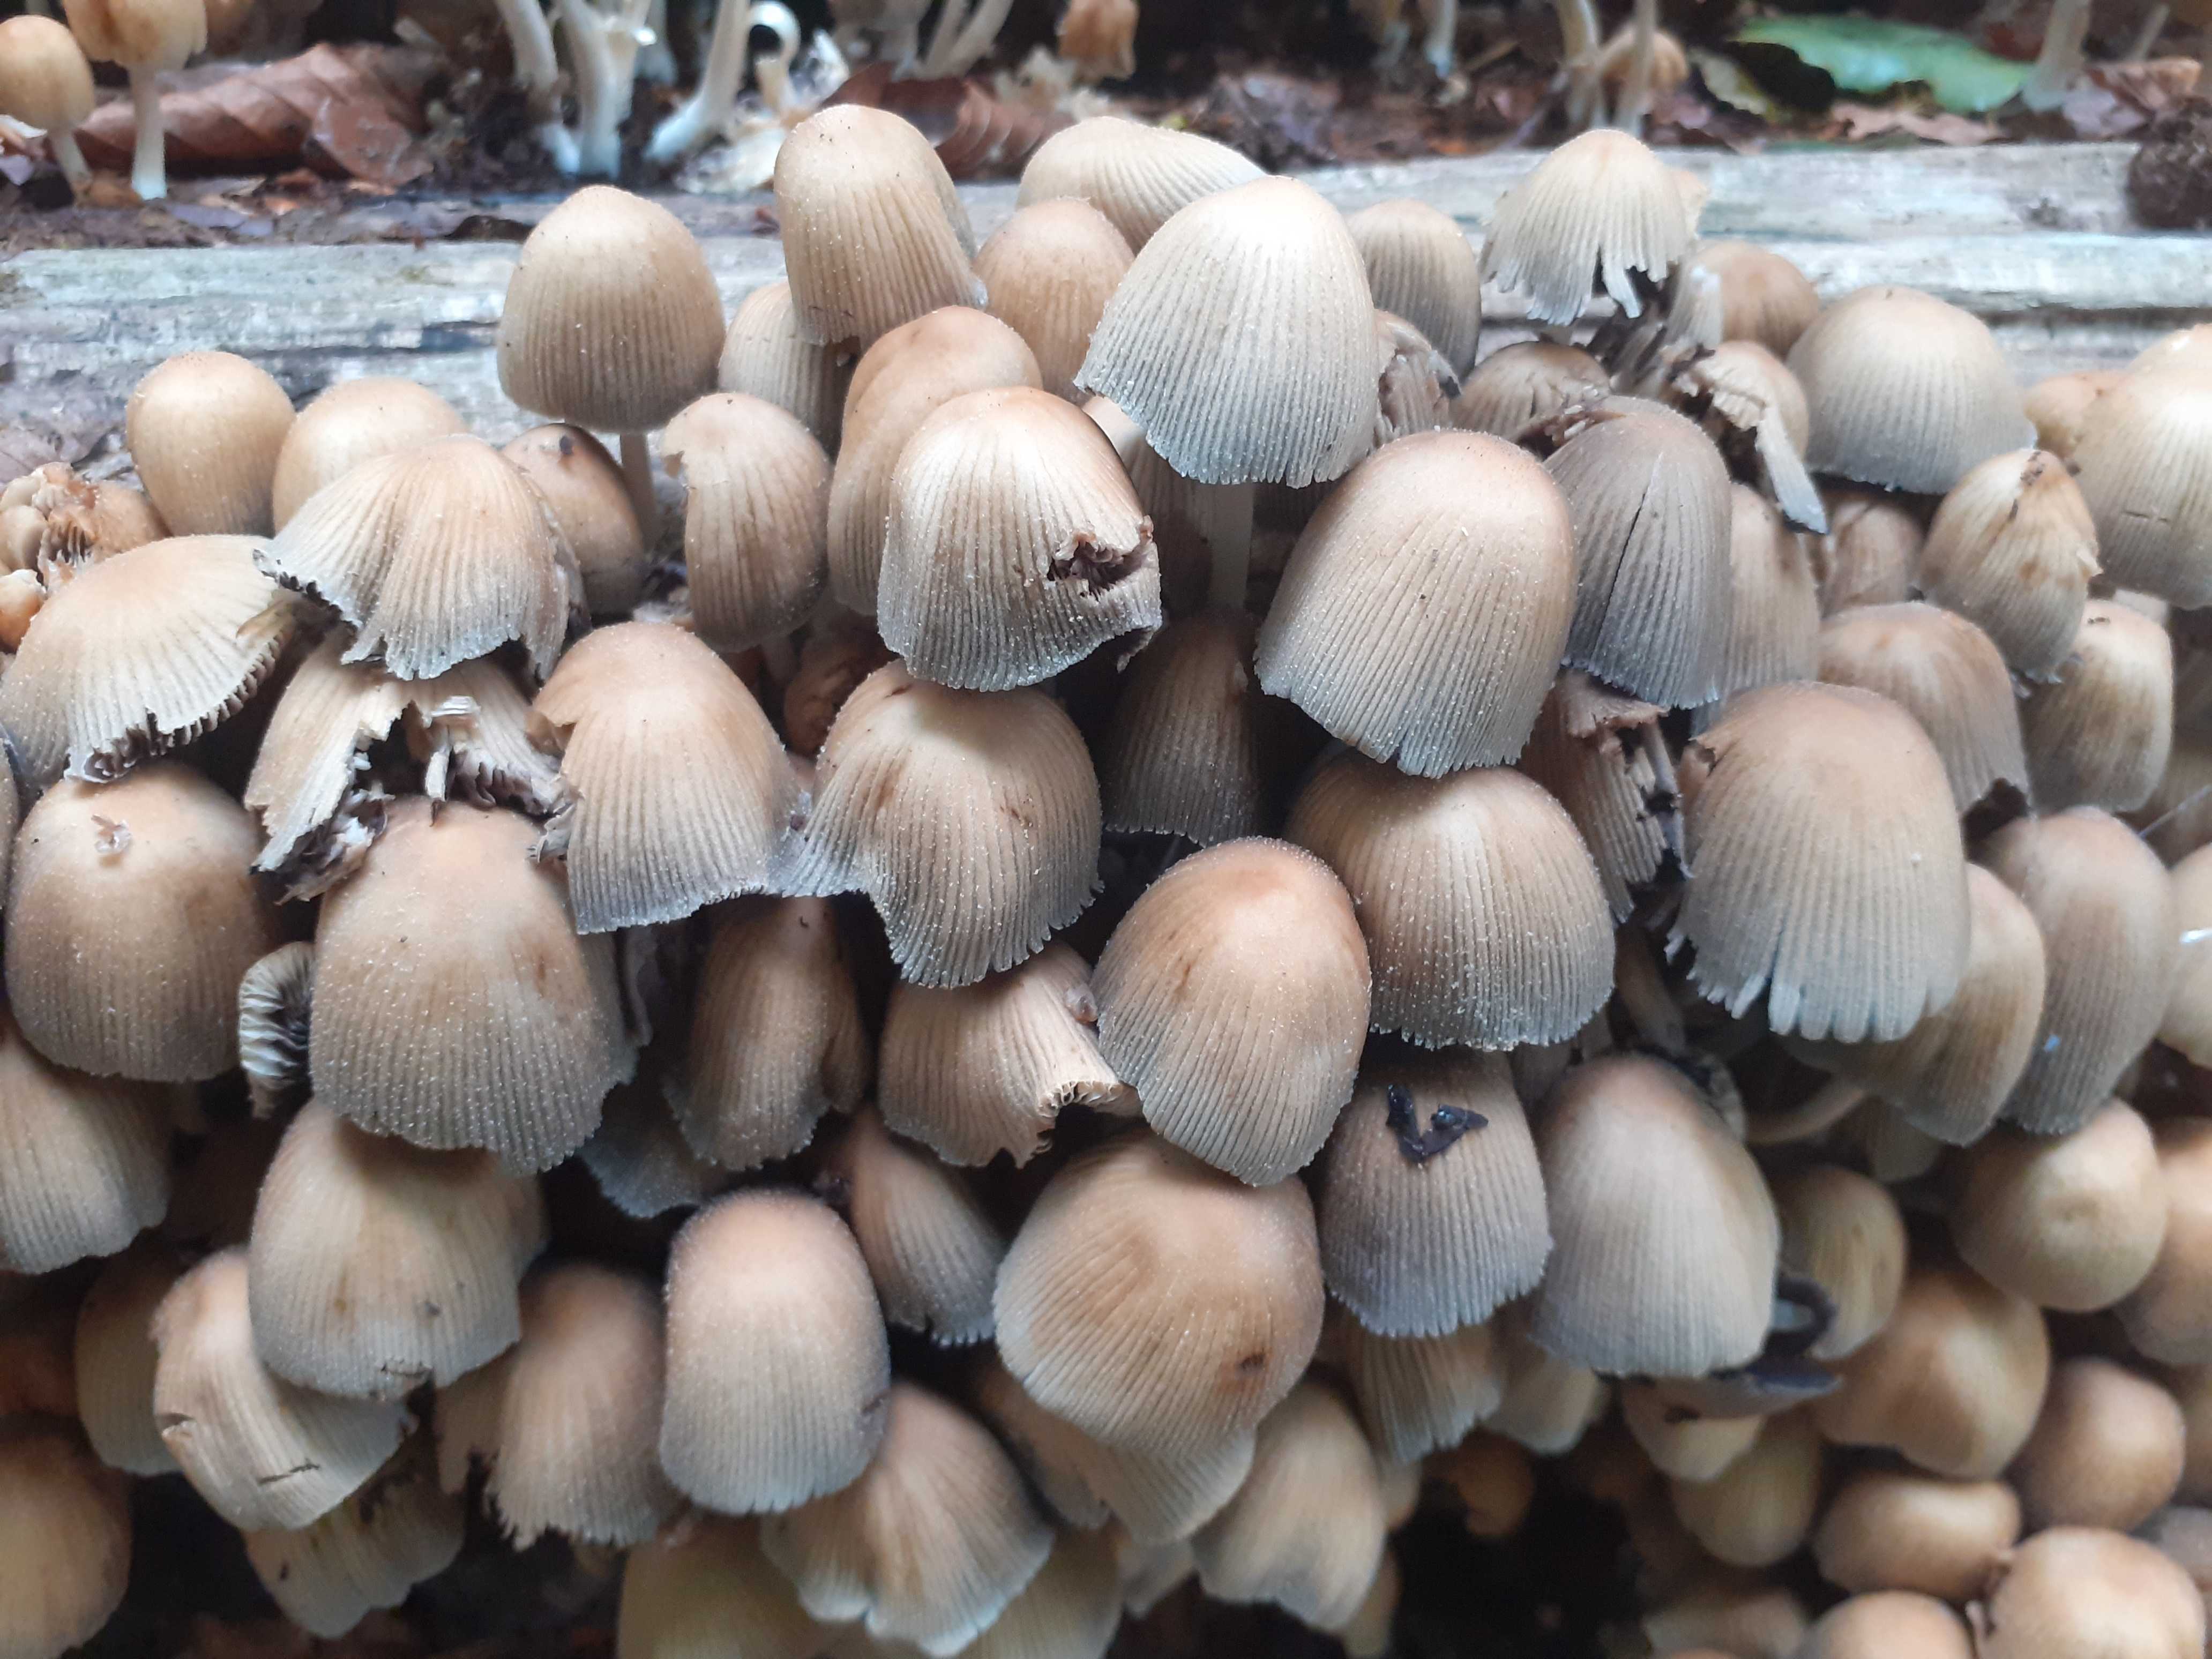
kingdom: Fungi
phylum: Basidiomycota
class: Agaricomycetes
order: Agaricales
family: Psathyrellaceae
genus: Coprinellus
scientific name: Coprinellus micaceus
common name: glimmer-blækhat
